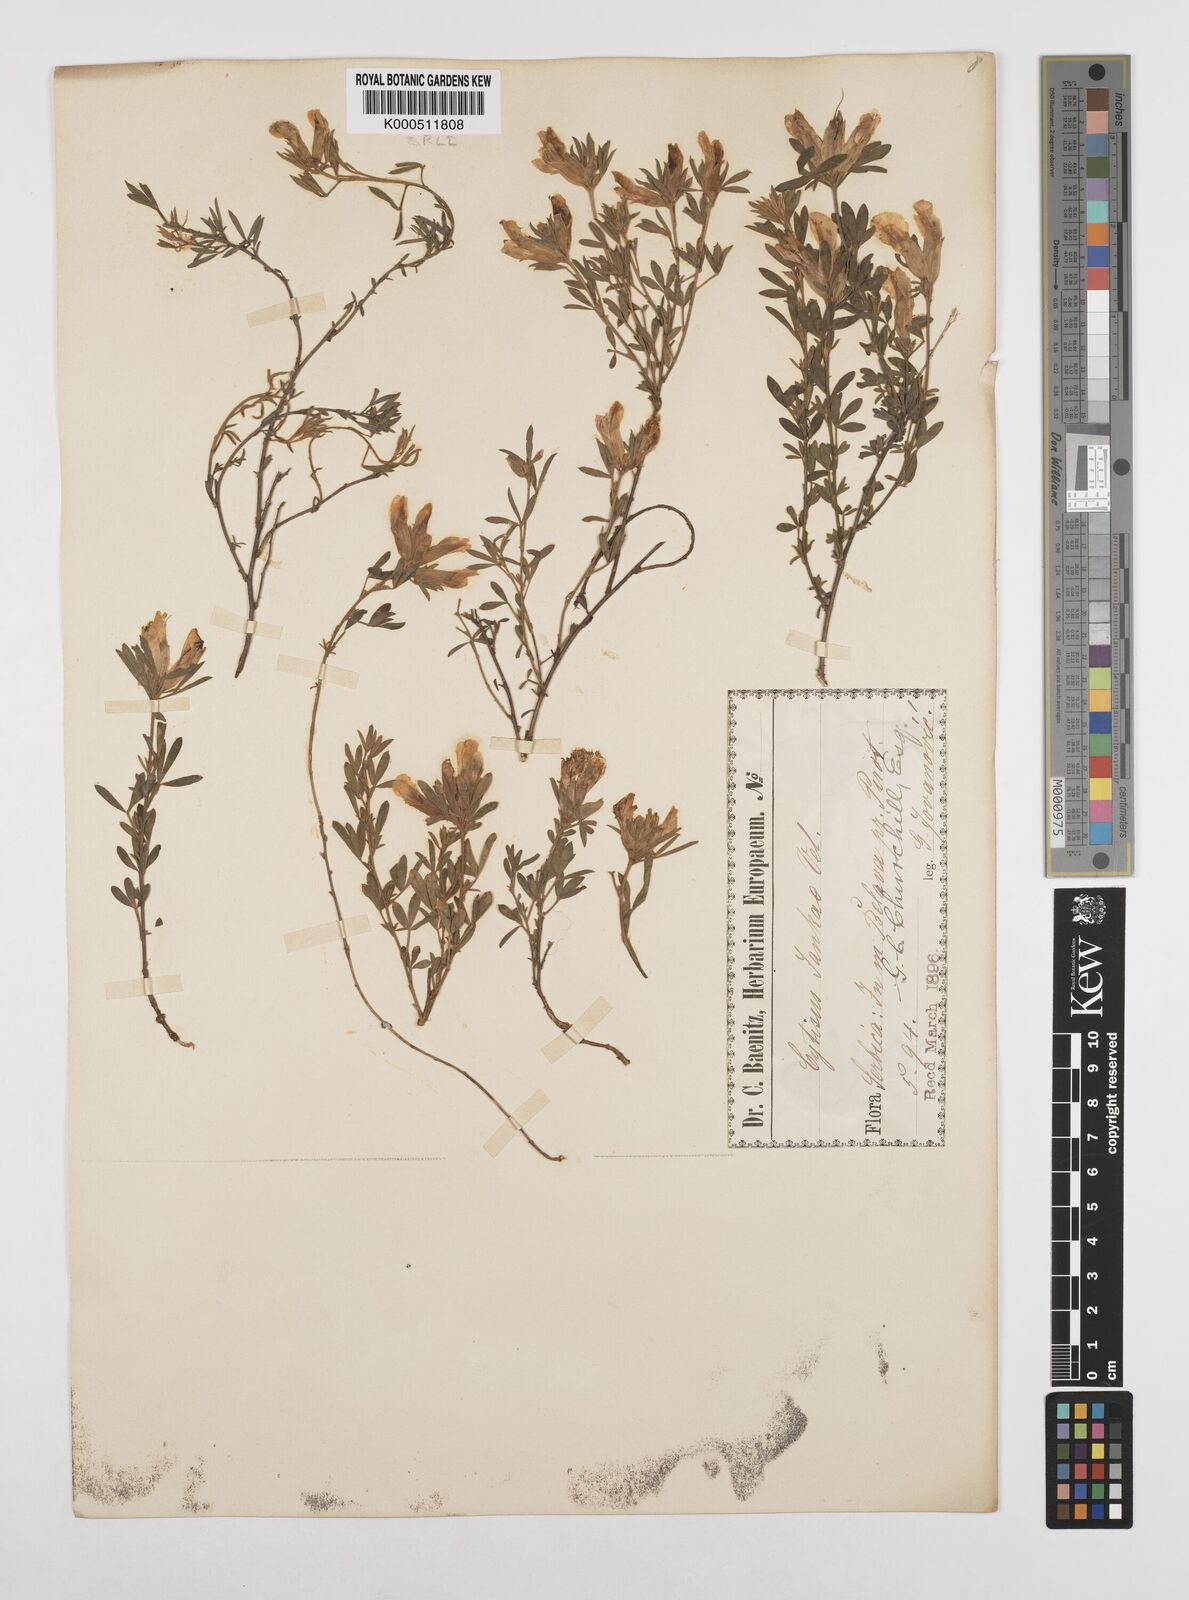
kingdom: Plantae
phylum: Tracheophyta
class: Magnoliopsida
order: Fabales
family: Fabaceae
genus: Chamaecytisus
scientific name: Chamaecytisus jankae
